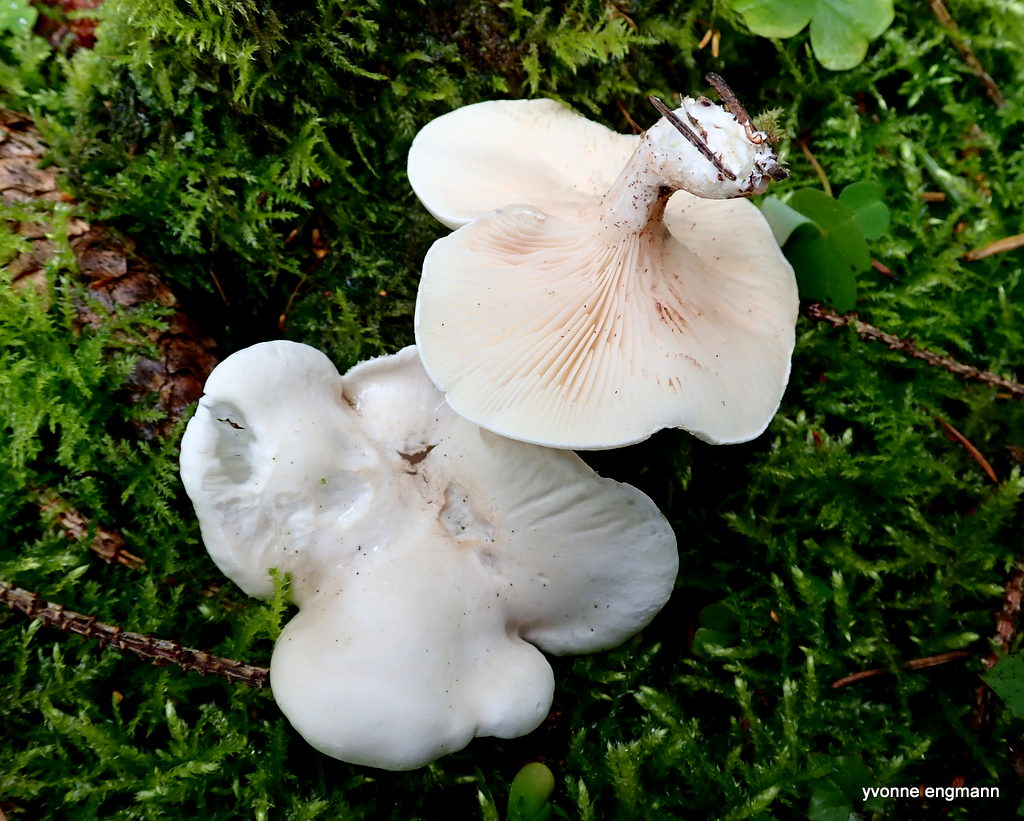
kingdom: Fungi
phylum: Basidiomycota
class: Agaricomycetes
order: Agaricales
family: Entolomataceae
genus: Clitopilus
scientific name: Clitopilus prunulus
